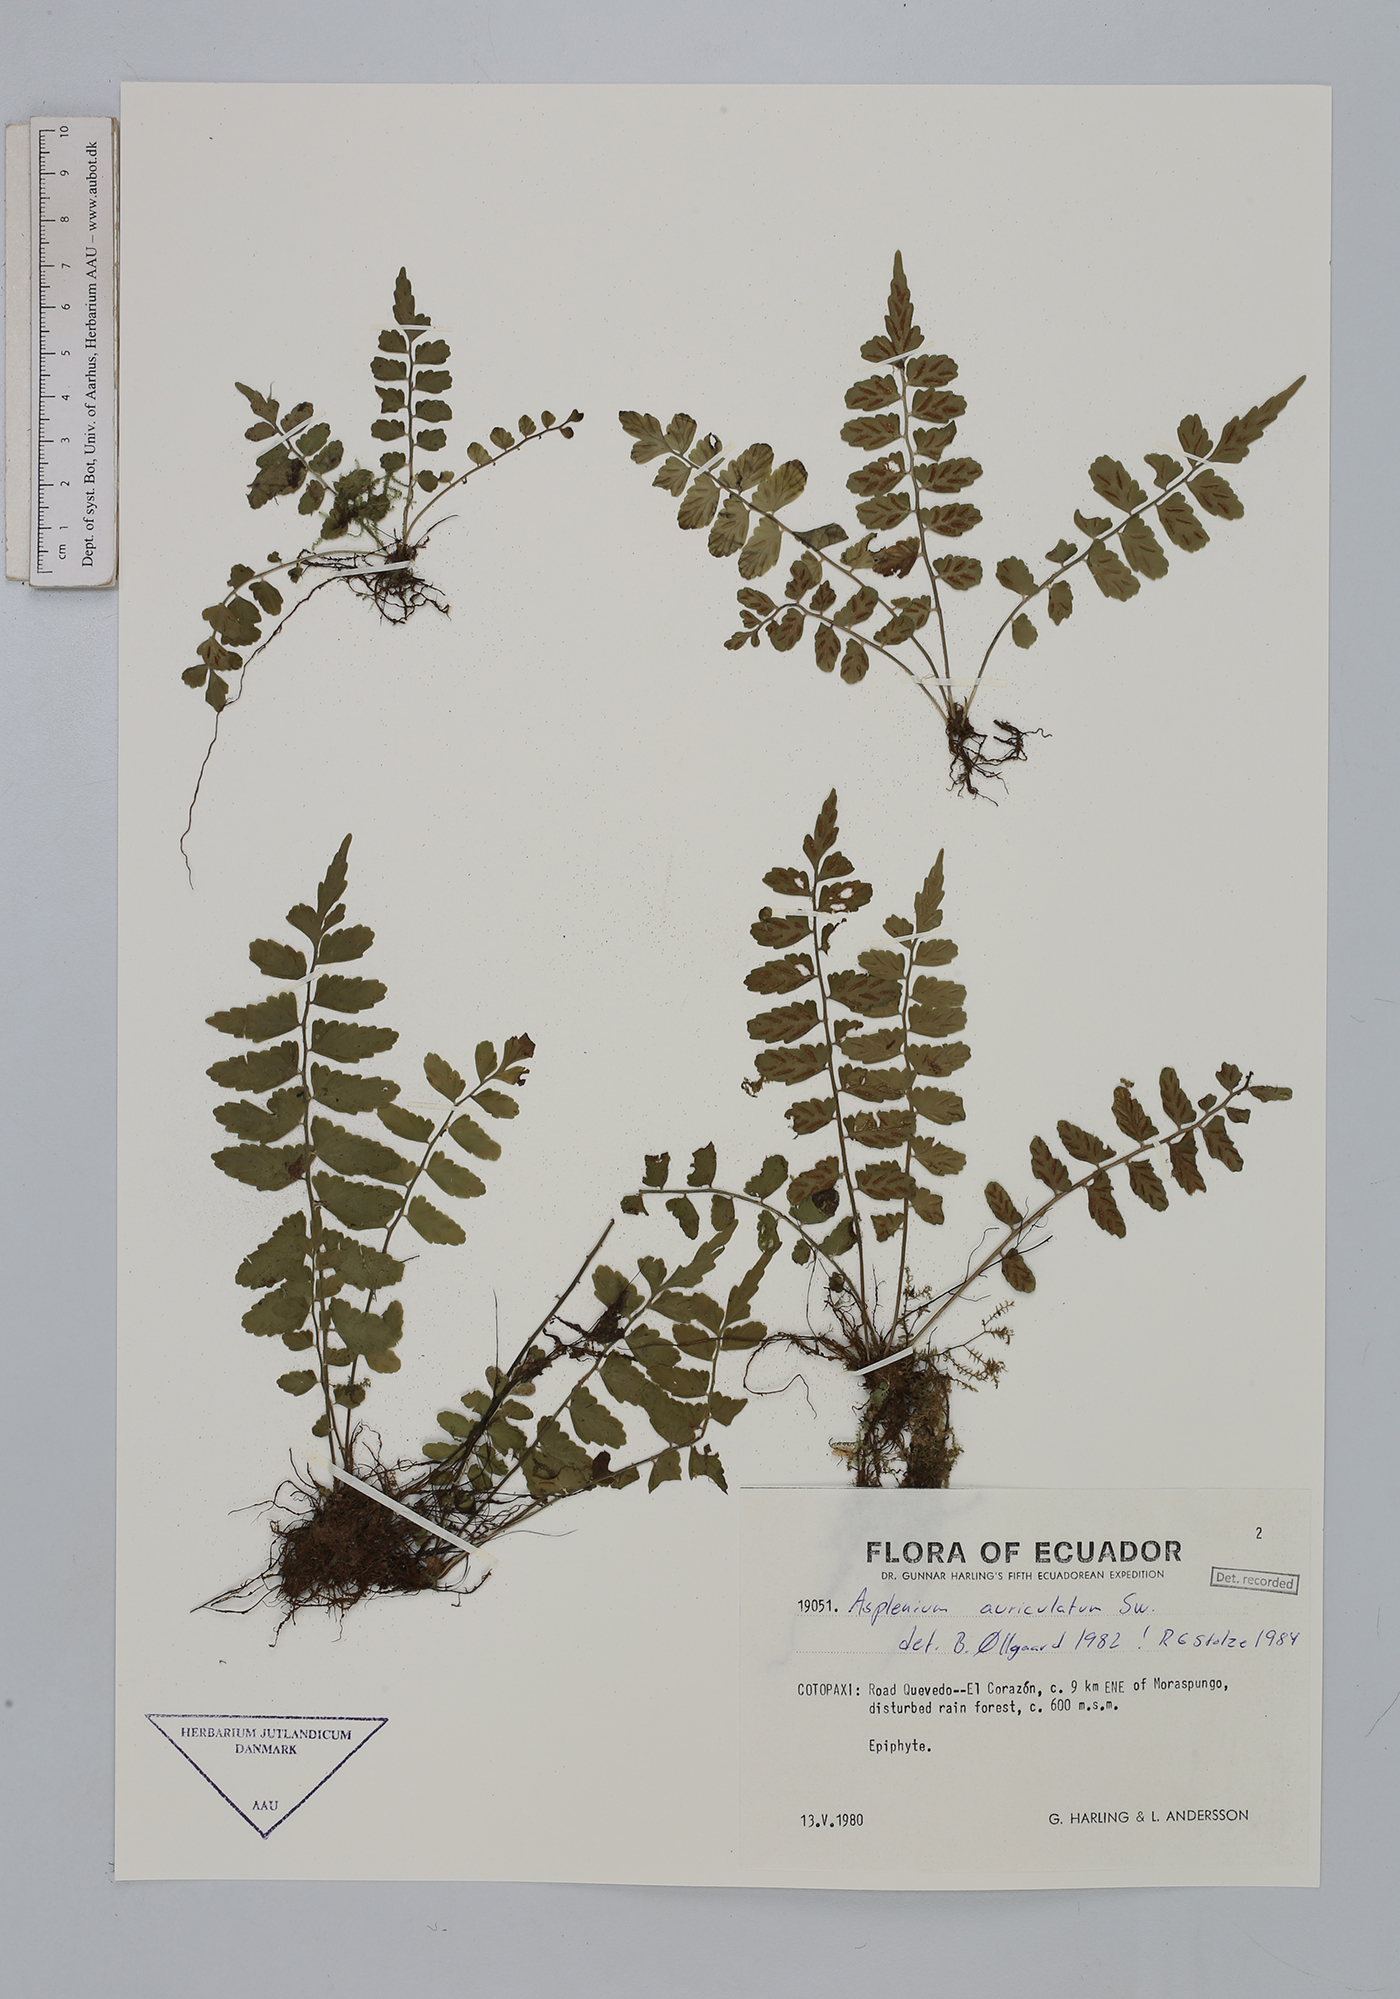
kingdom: Plantae
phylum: Tracheophyta
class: Polypodiopsida
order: Polypodiales
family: Aspleniaceae
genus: Asplenium
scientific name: Asplenium auriculatum
